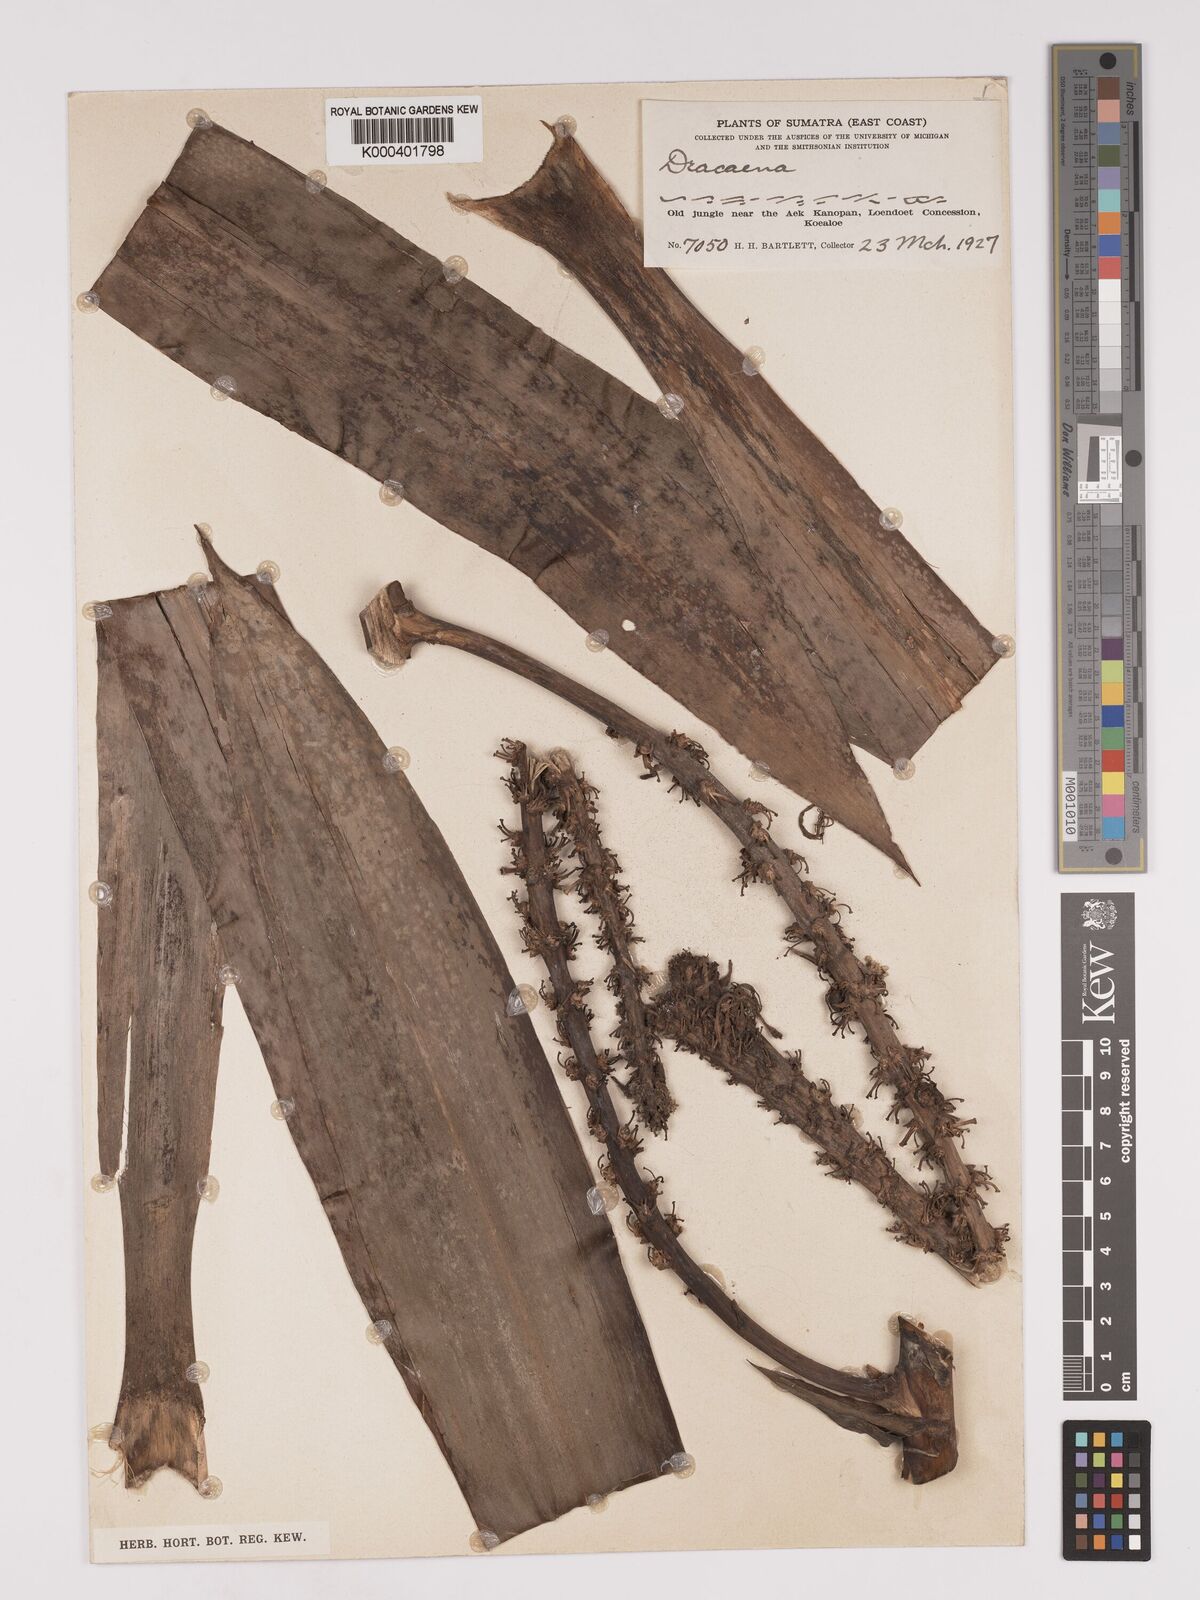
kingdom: Plantae
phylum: Tracheophyta
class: Liliopsida
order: Asparagales
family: Asparagaceae
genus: Dracaena
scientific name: Dracaena
